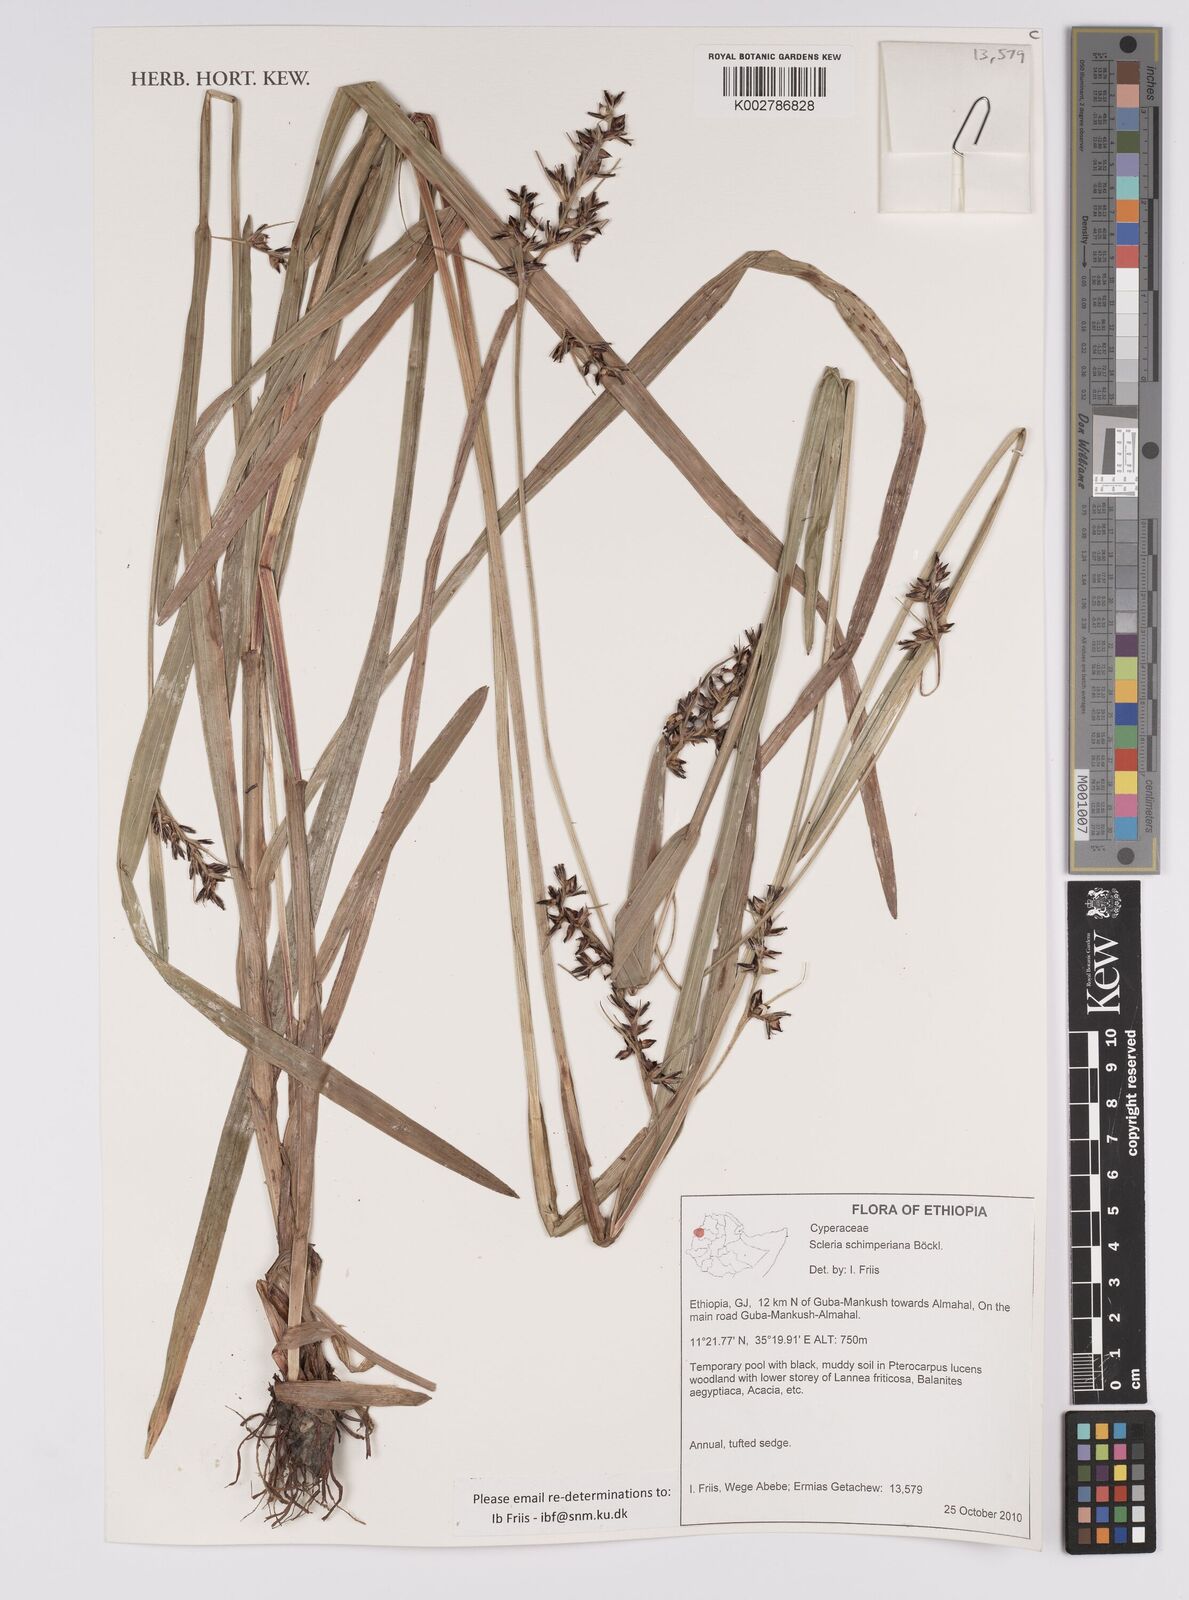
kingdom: Plantae
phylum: Tracheophyta
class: Liliopsida
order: Poales
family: Cyperaceae
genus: Scleria
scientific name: Scleria schimperiana
